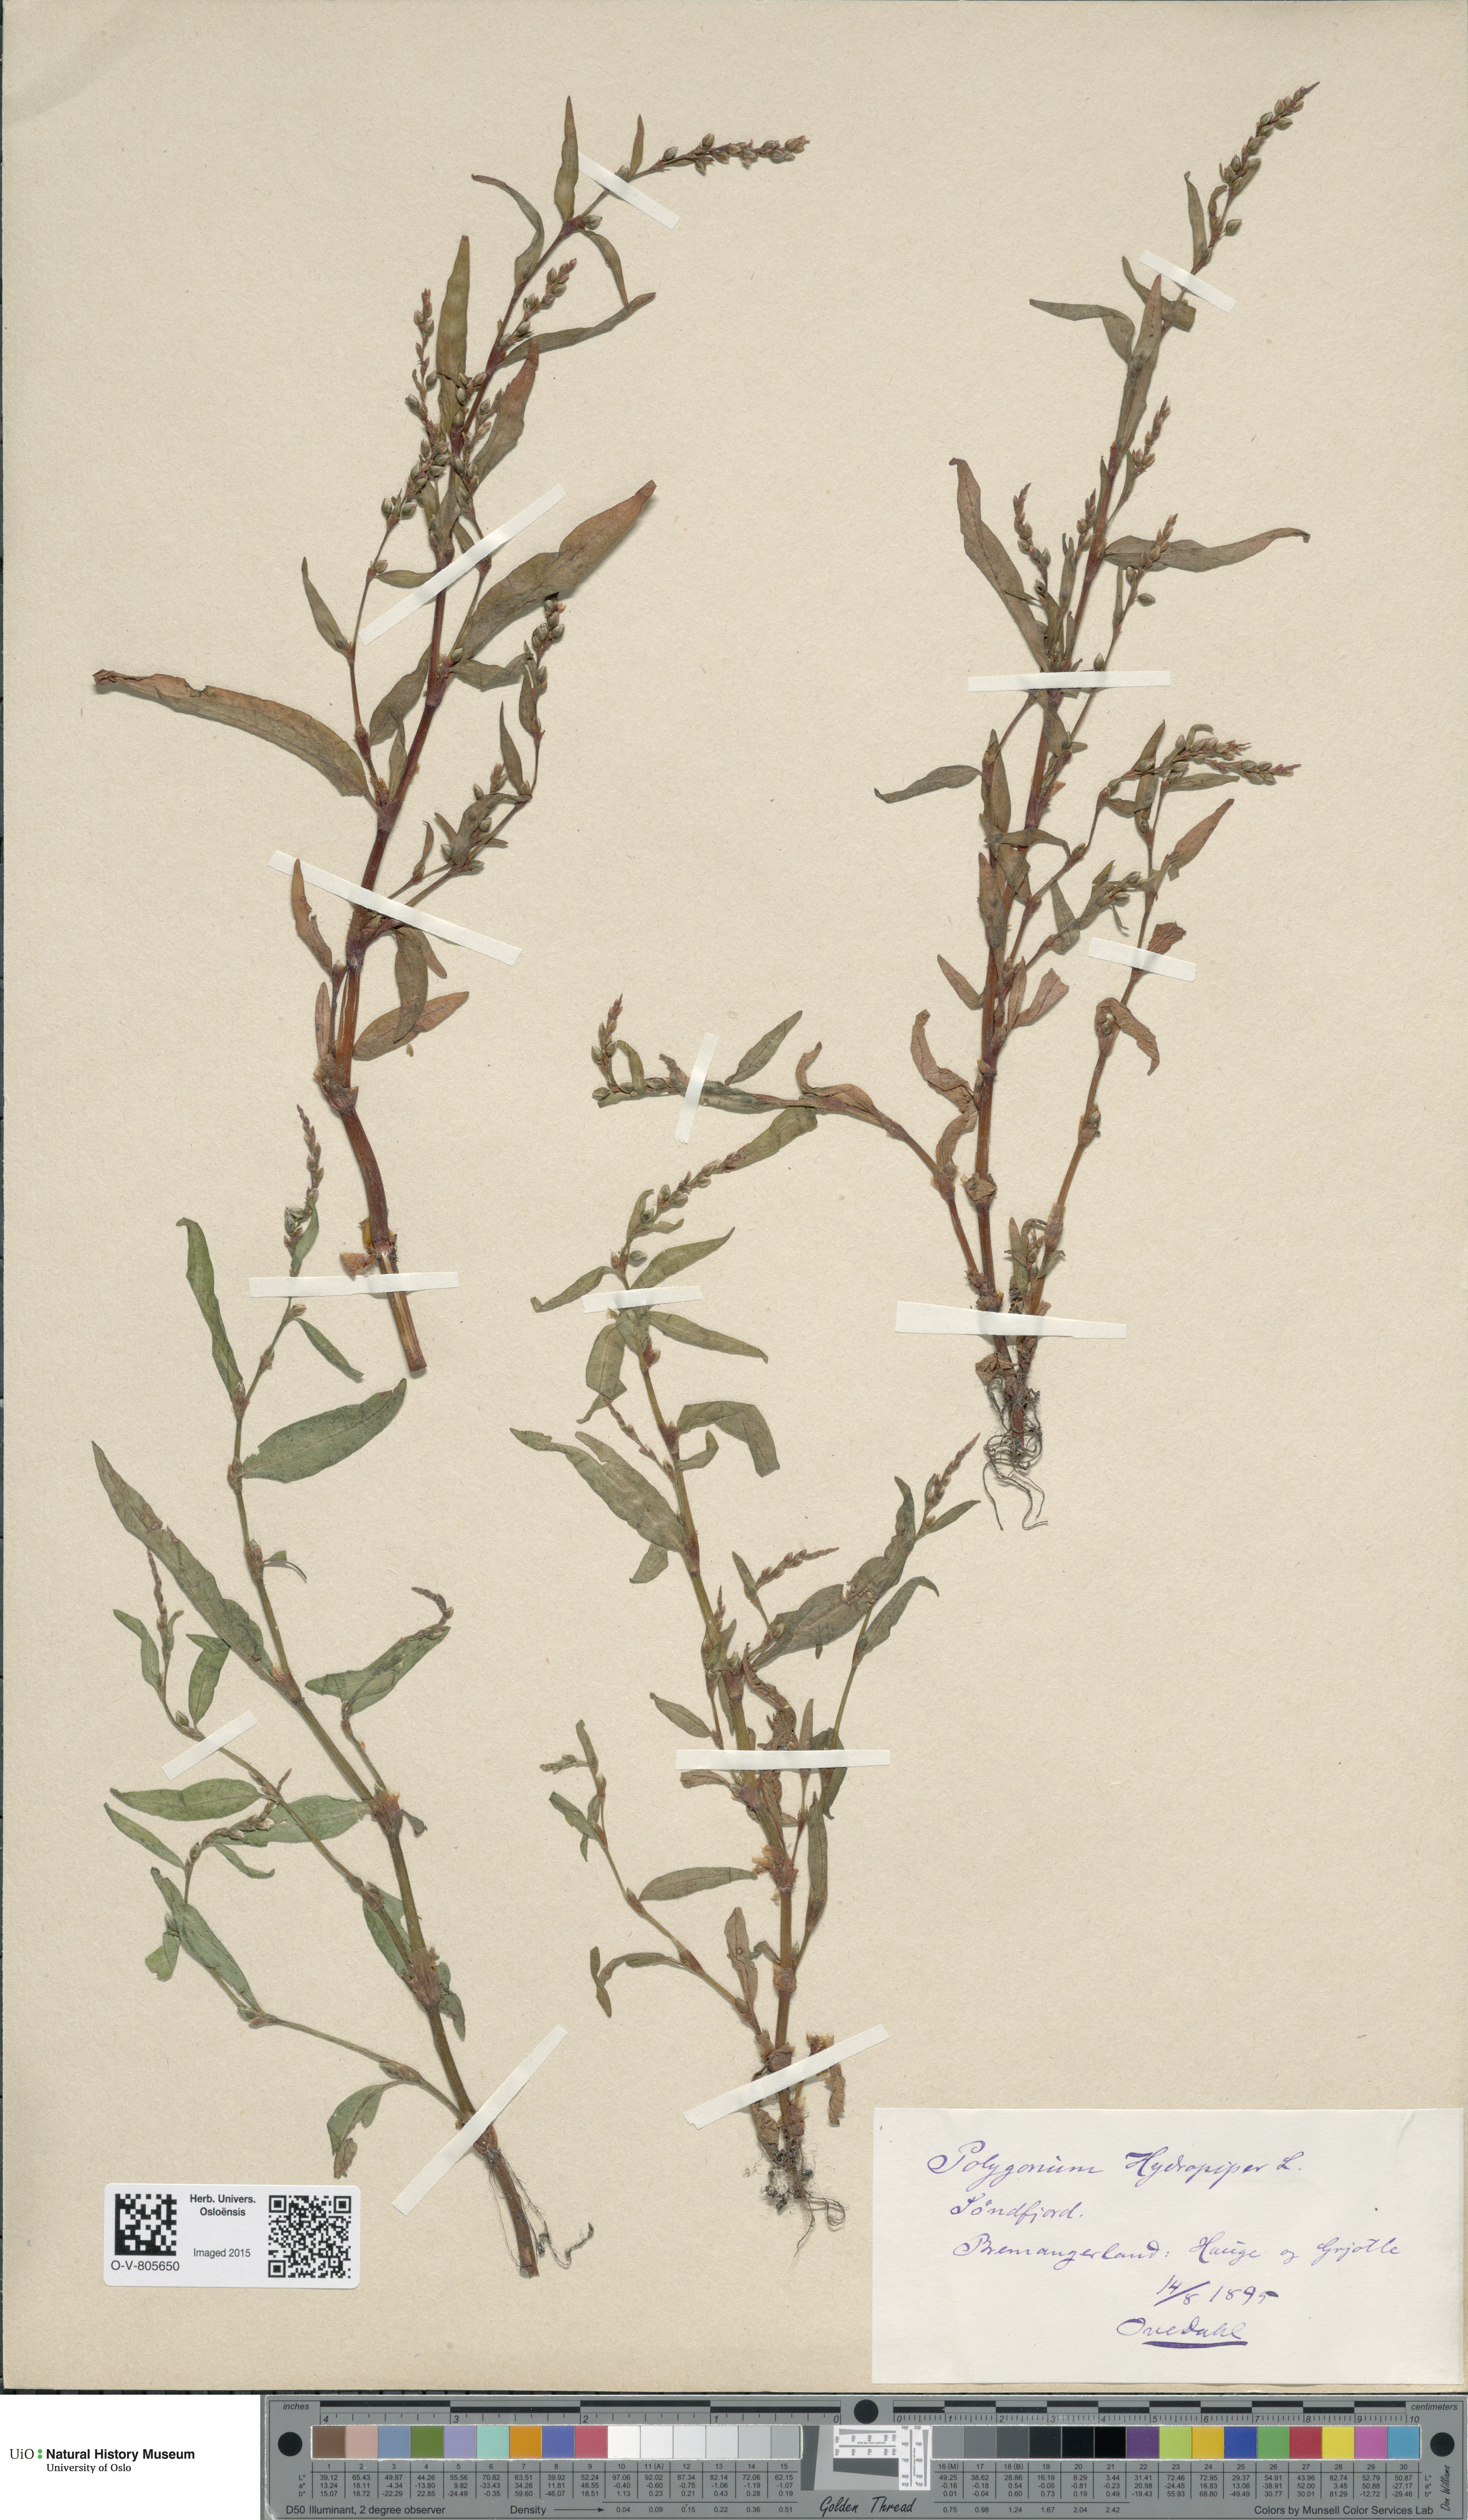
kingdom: Plantae
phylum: Tracheophyta
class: Magnoliopsida
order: Caryophyllales
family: Polygonaceae
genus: Persicaria
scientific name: Persicaria hydropiper
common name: Water-pepper
